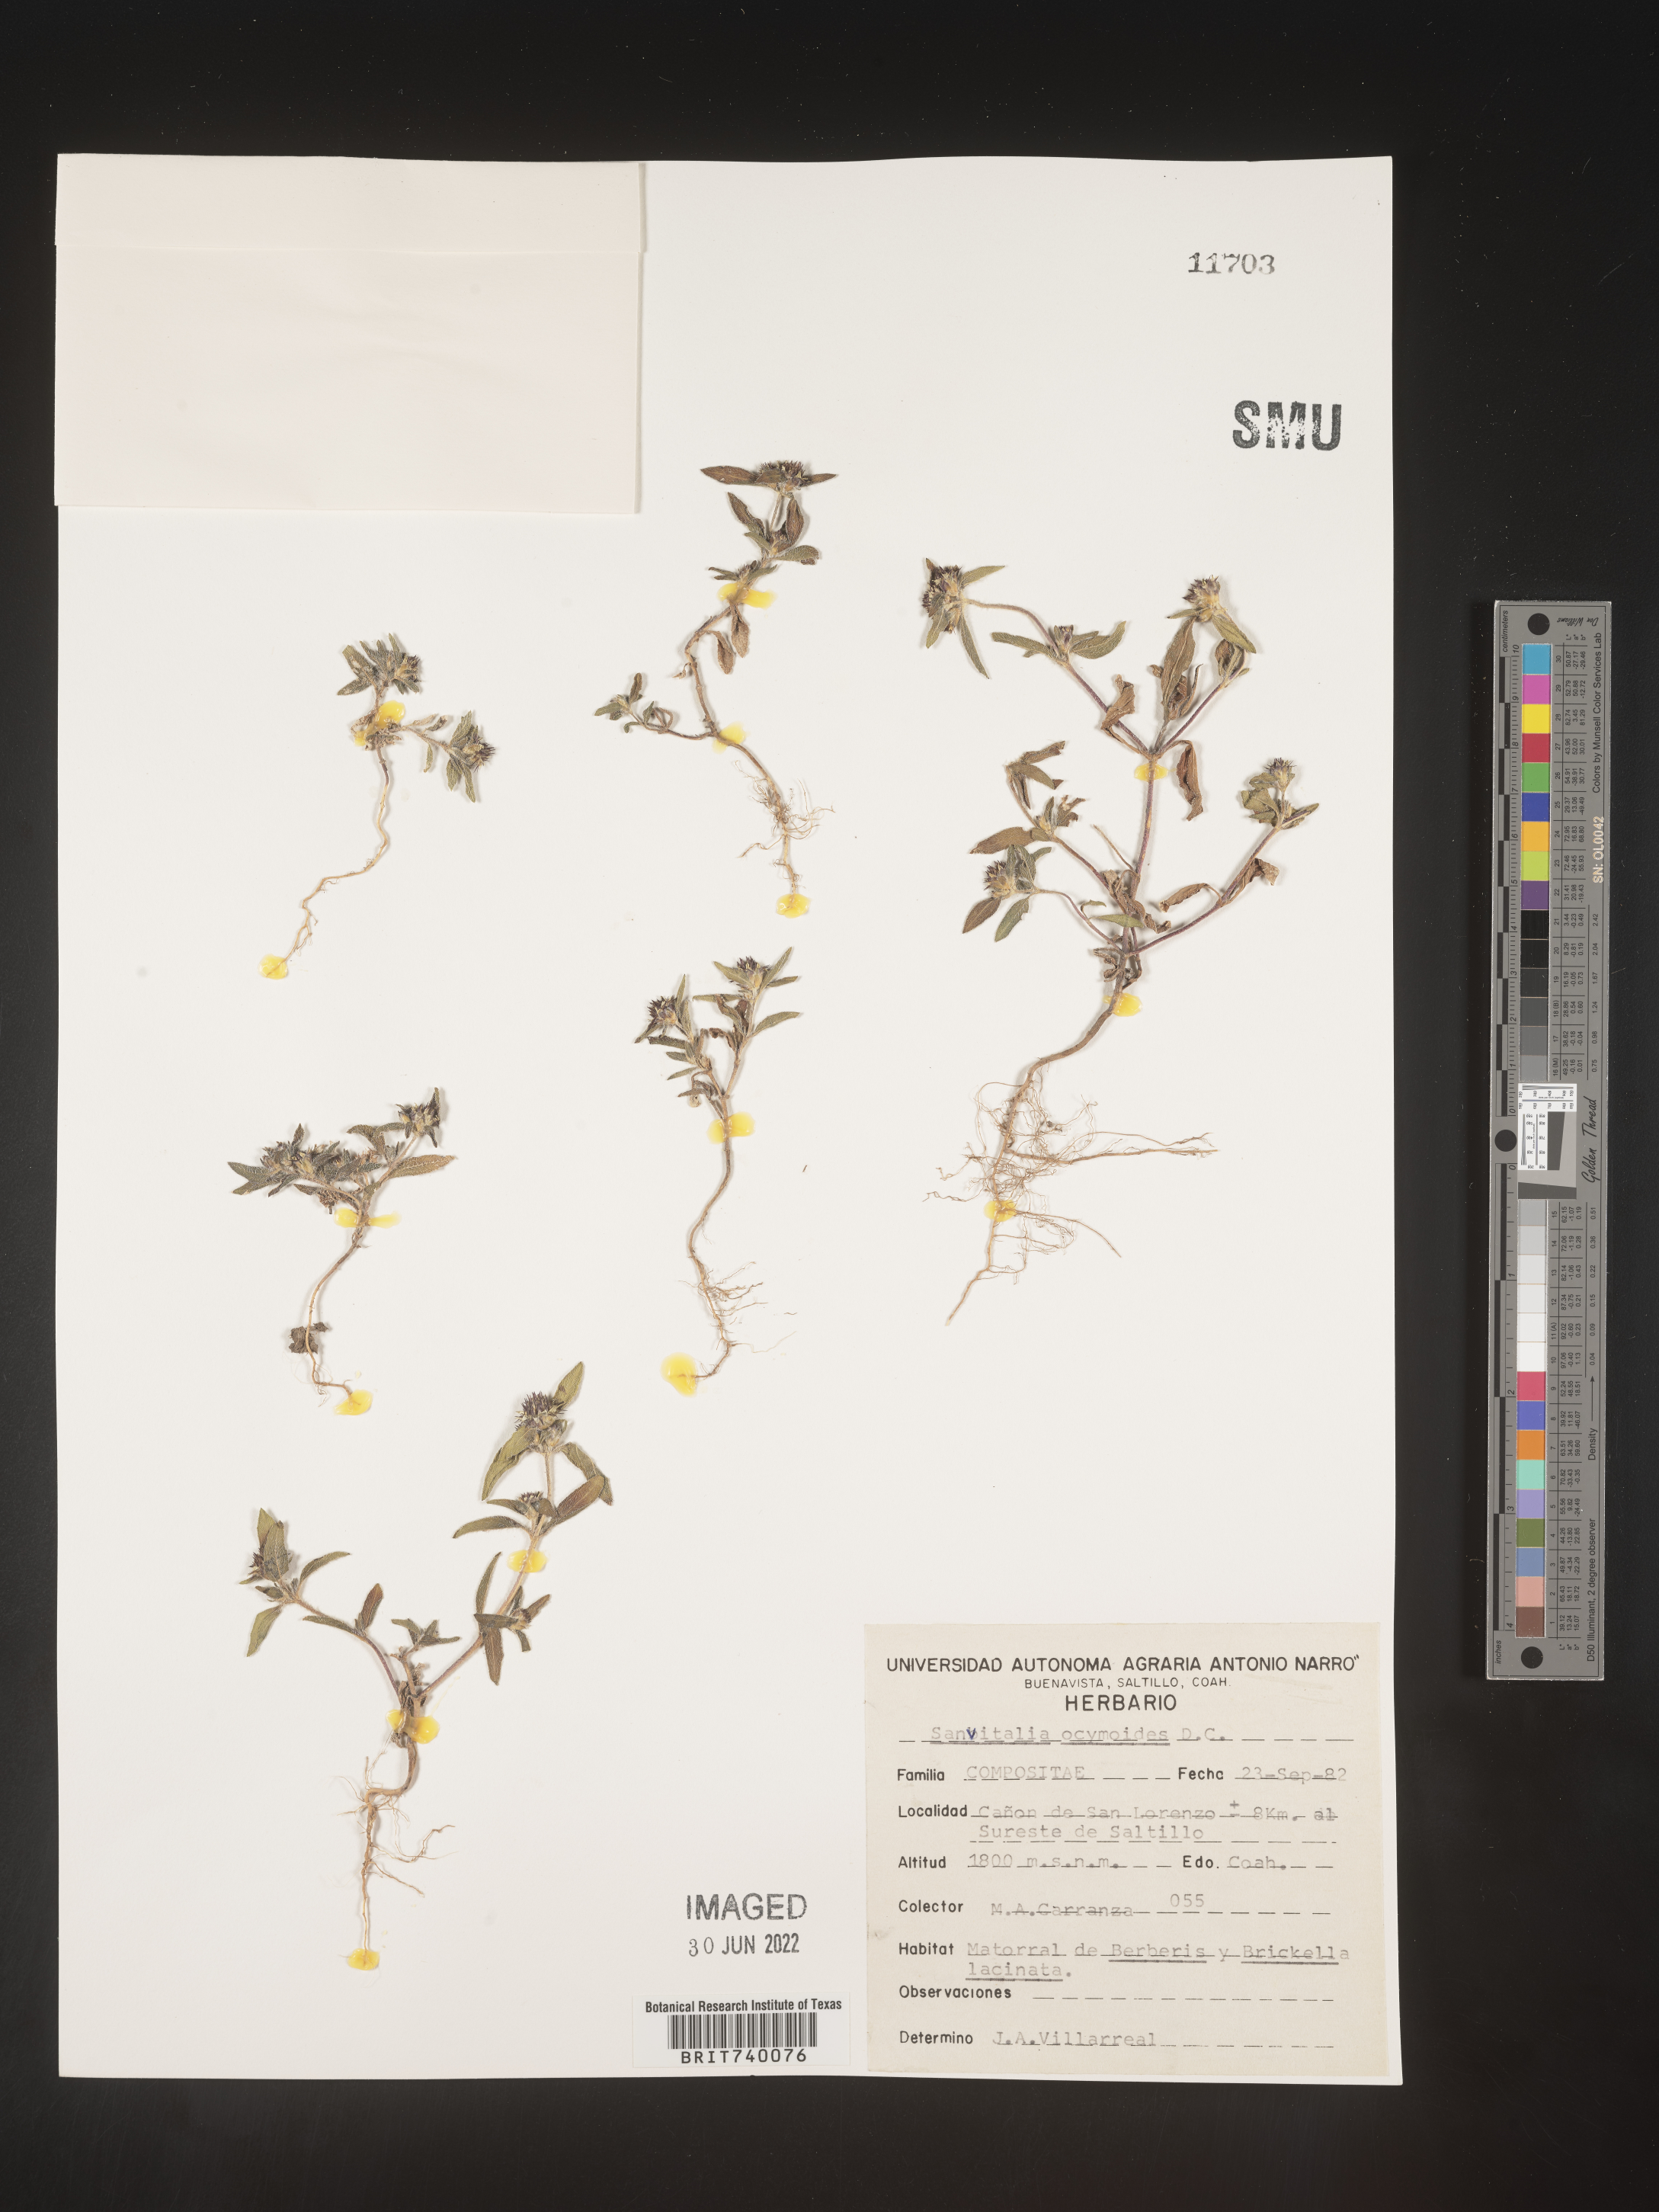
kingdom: Plantae
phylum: Tracheophyta
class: Magnoliopsida
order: Asterales
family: Asteraceae
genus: Sanvitalia
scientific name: Sanvitalia
